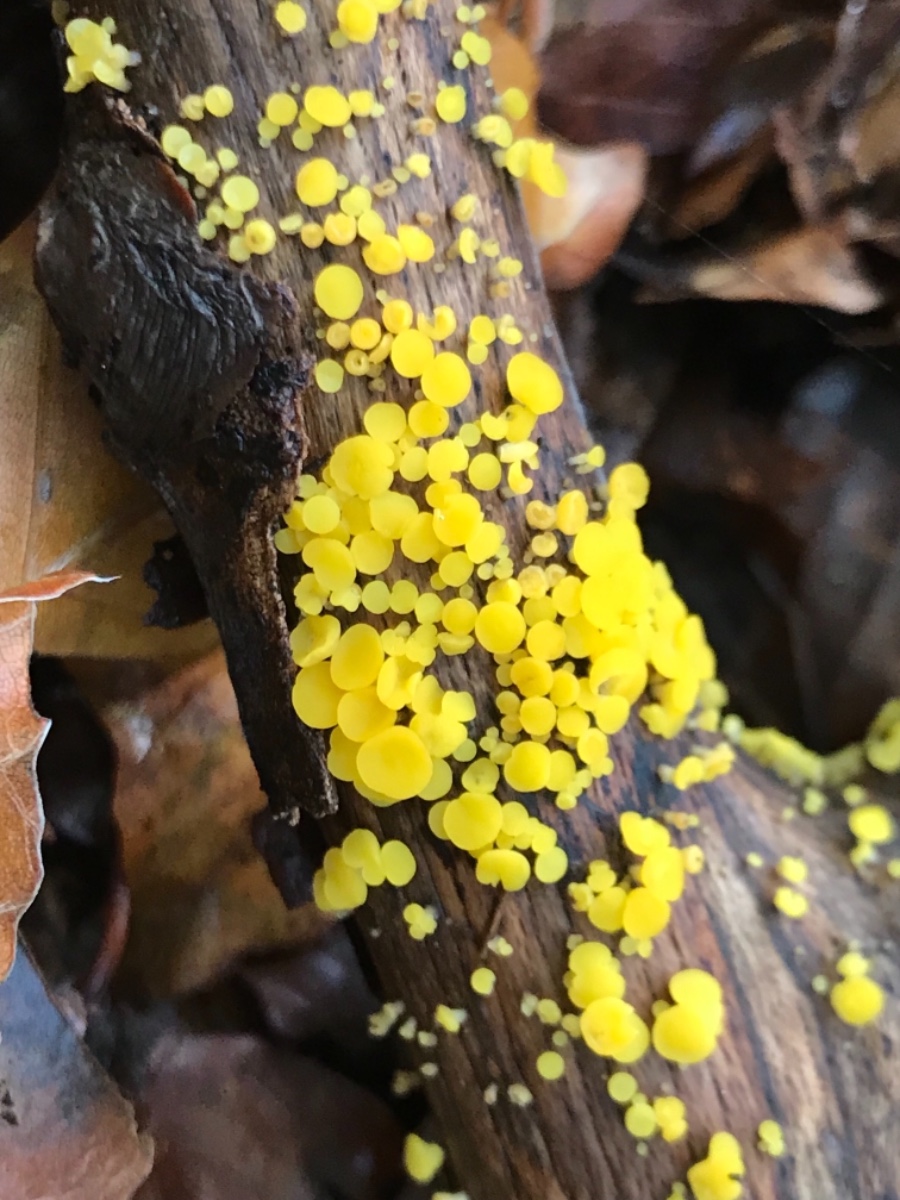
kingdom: Fungi
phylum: Ascomycota
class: Leotiomycetes
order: Helotiales
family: Pezizellaceae
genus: Calycina
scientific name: Calycina citrina
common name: almindelig gulskive
